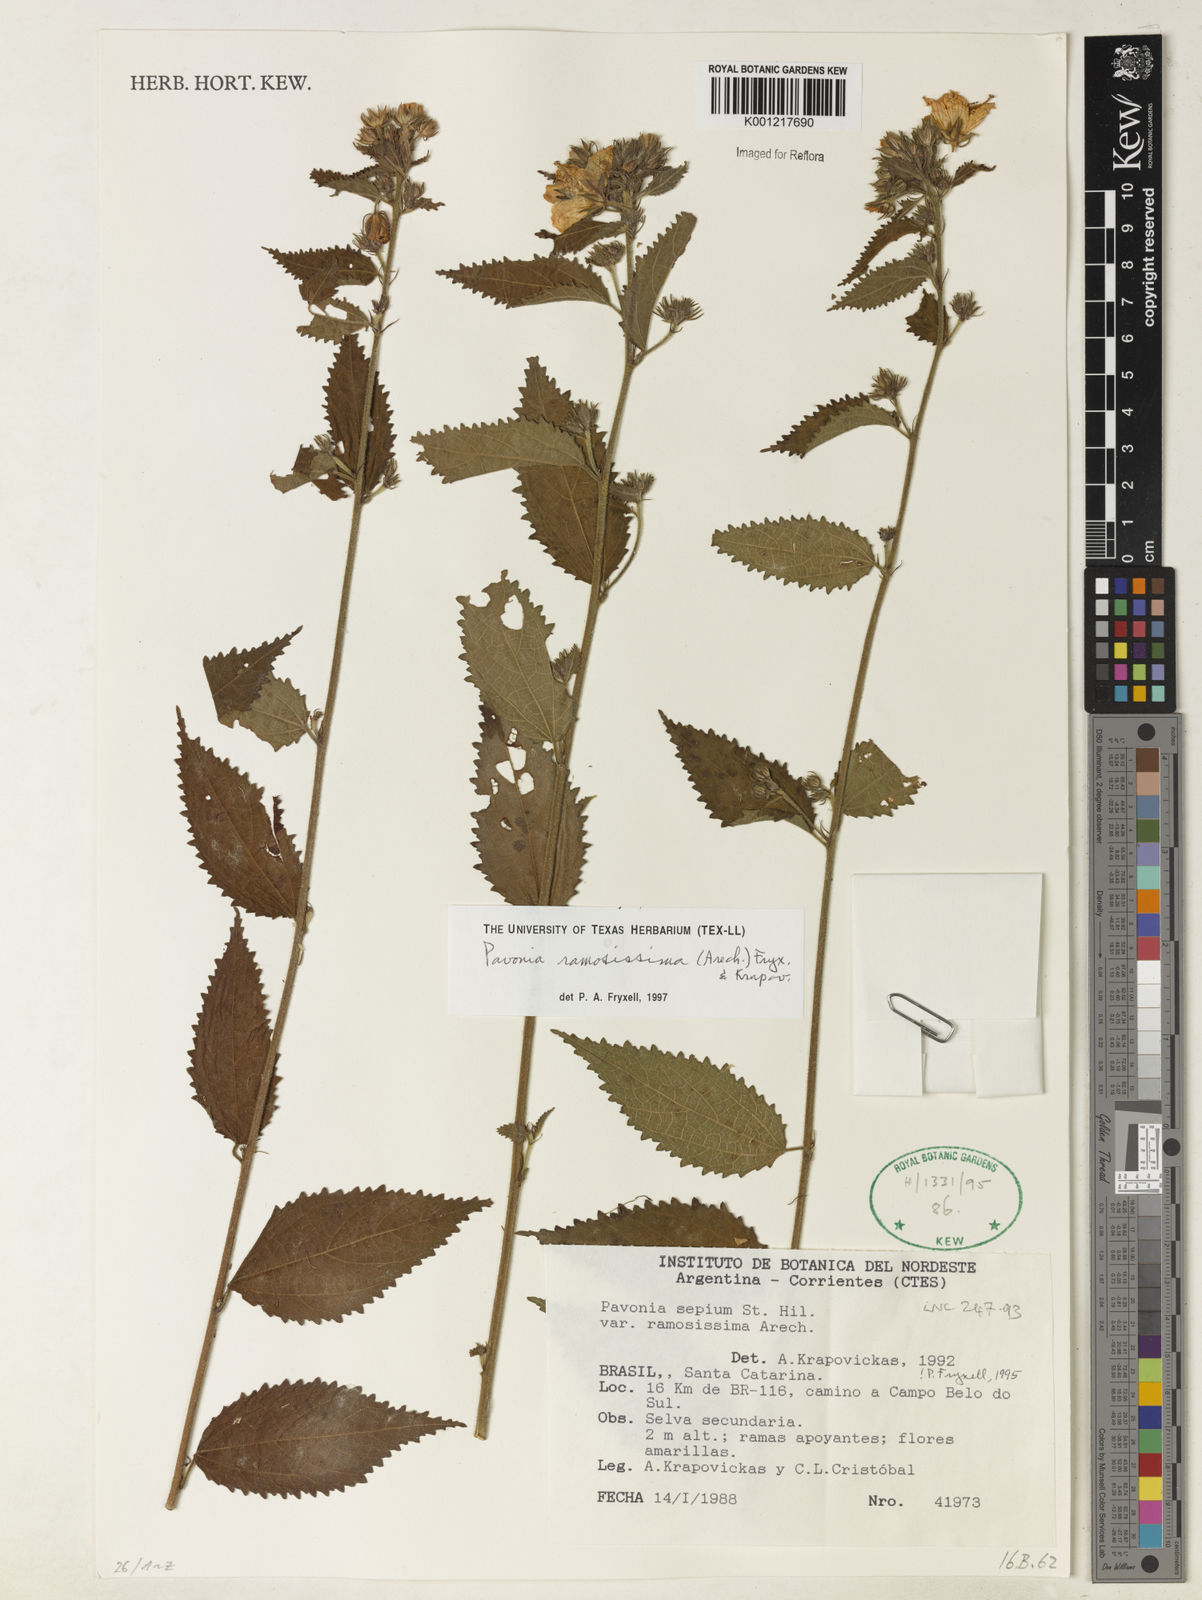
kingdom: Plantae
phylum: Tracheophyta
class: Magnoliopsida
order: Malvales
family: Malvaceae
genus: Pavonia
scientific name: Pavonia ramosissima
